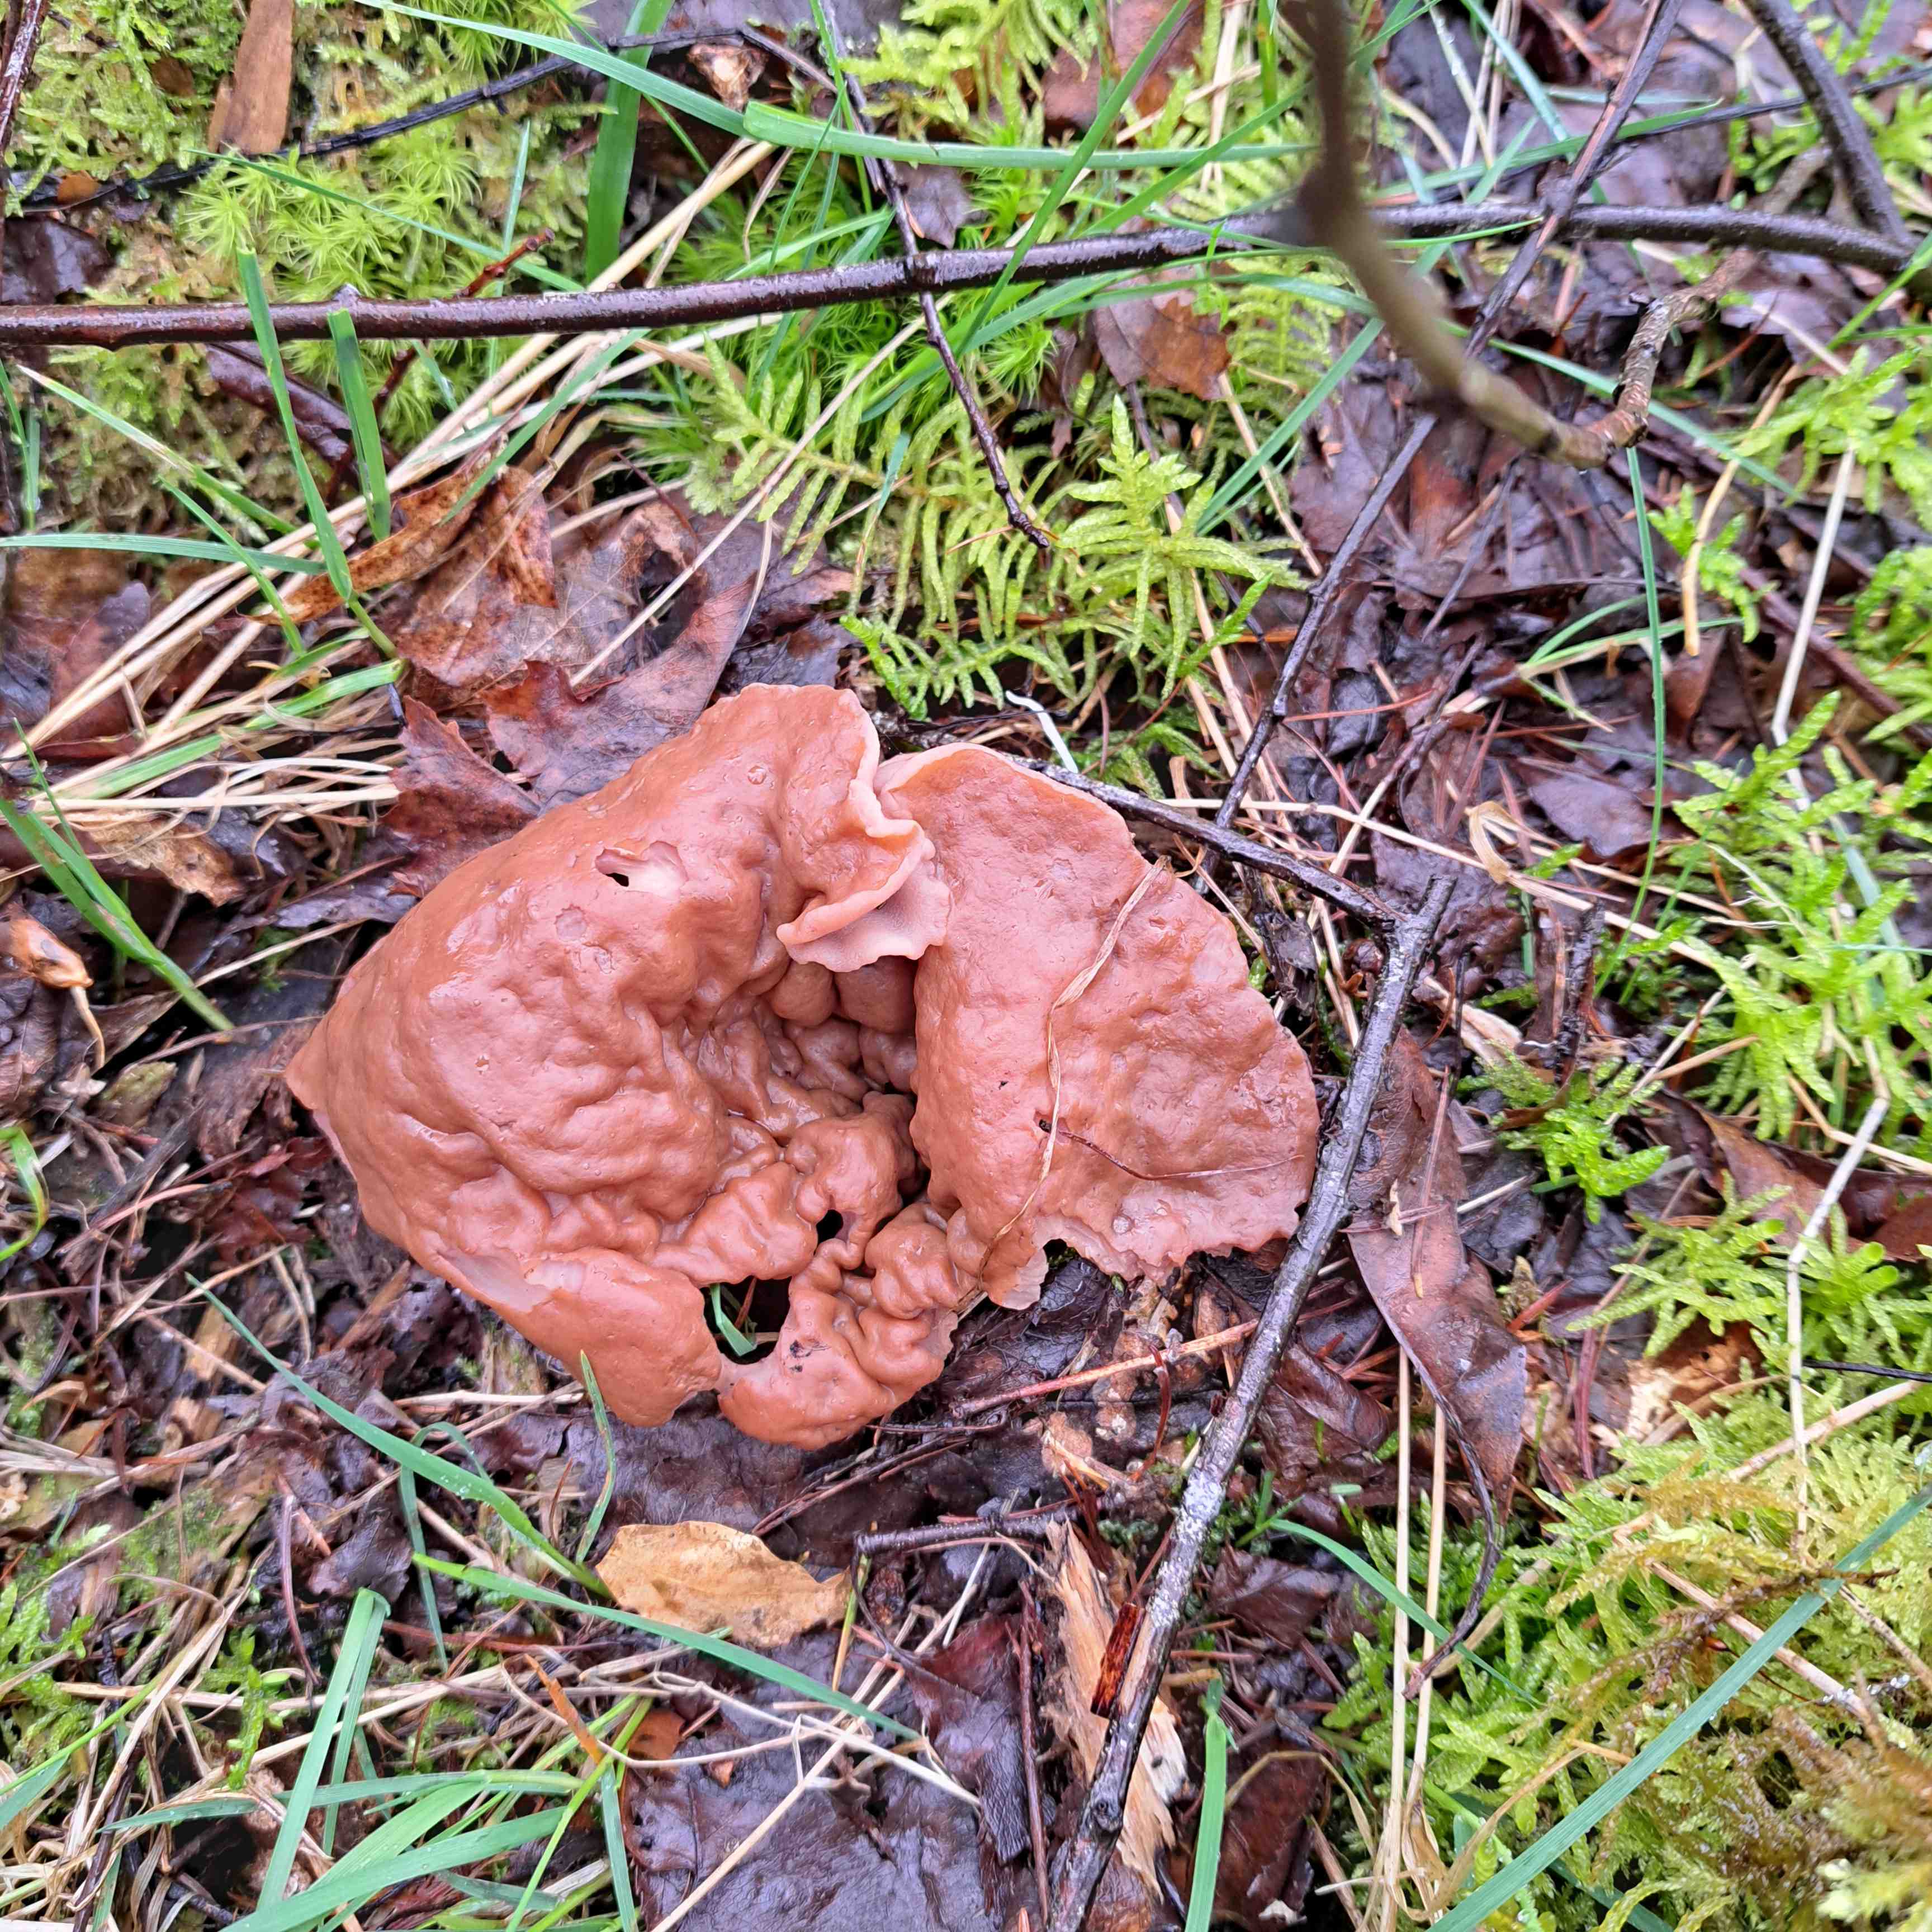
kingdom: Fungi
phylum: Ascomycota
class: Pezizomycetes
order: Pezizales
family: Discinaceae
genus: Discina
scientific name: Discina ancilis
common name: udbredt stenmorkel
